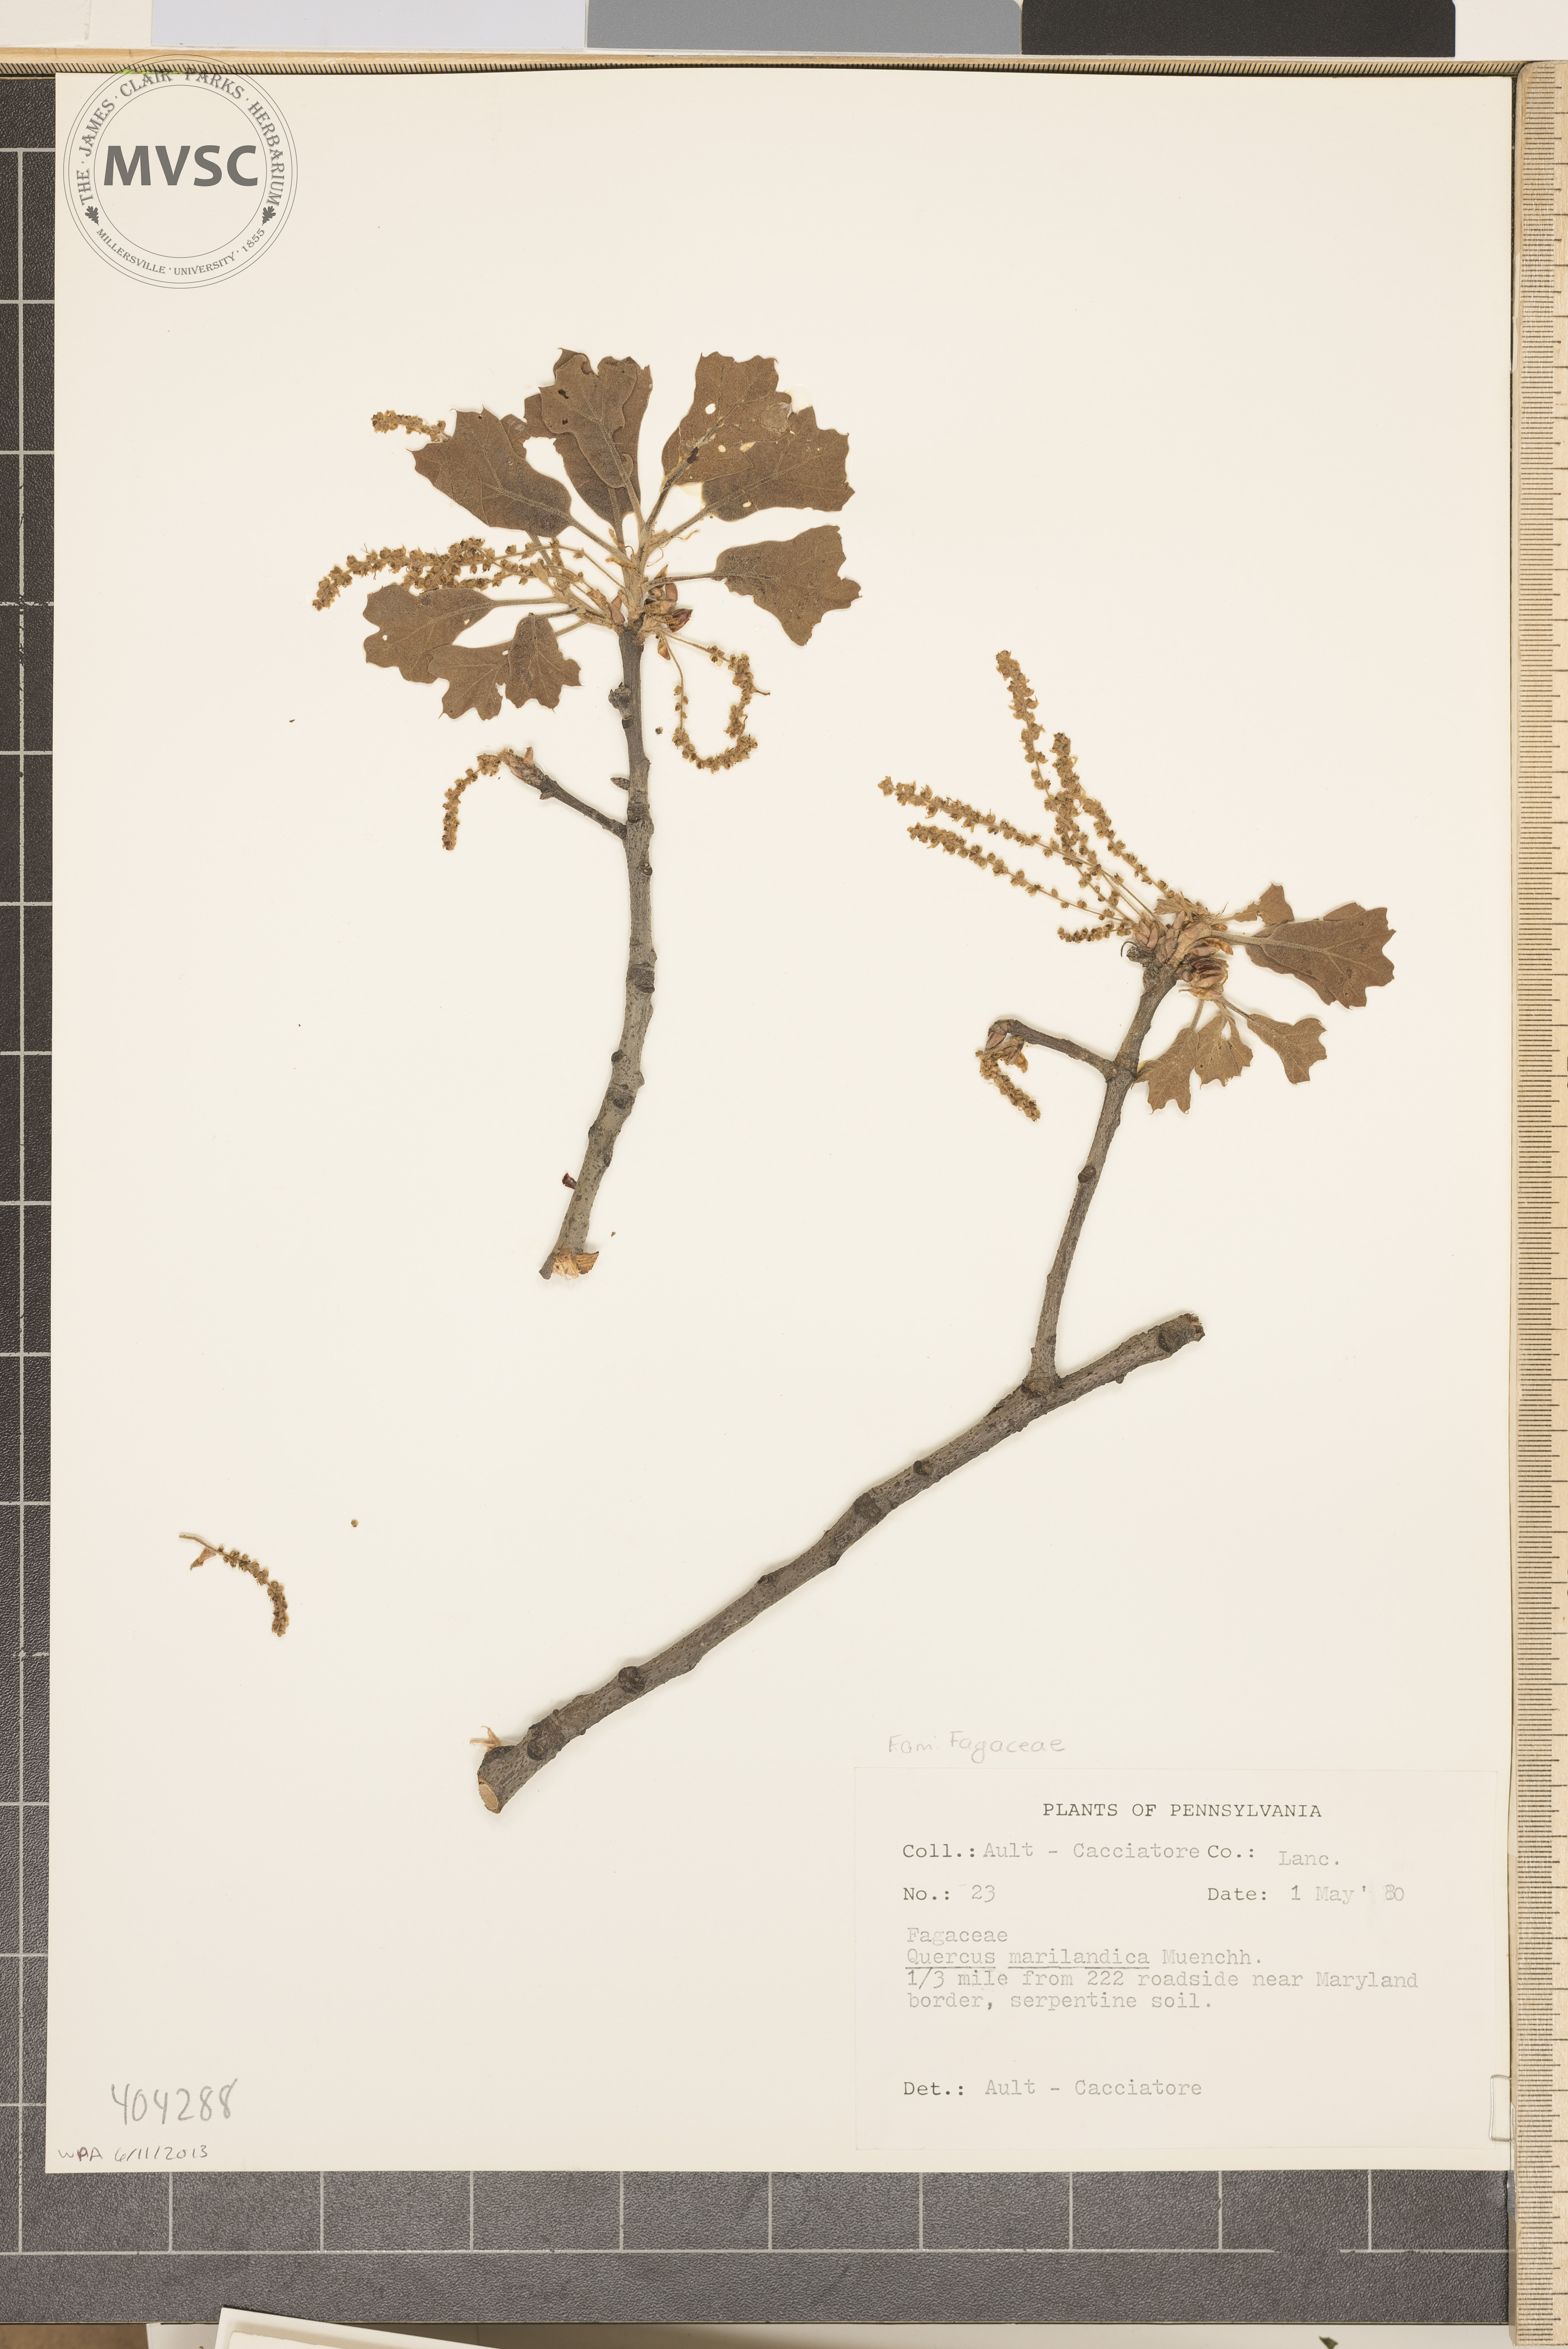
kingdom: Plantae
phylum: Tracheophyta
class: Magnoliopsida
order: Fagales
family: Fagaceae
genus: Quercus
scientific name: Quercus marilandica
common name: Blackjack oak
